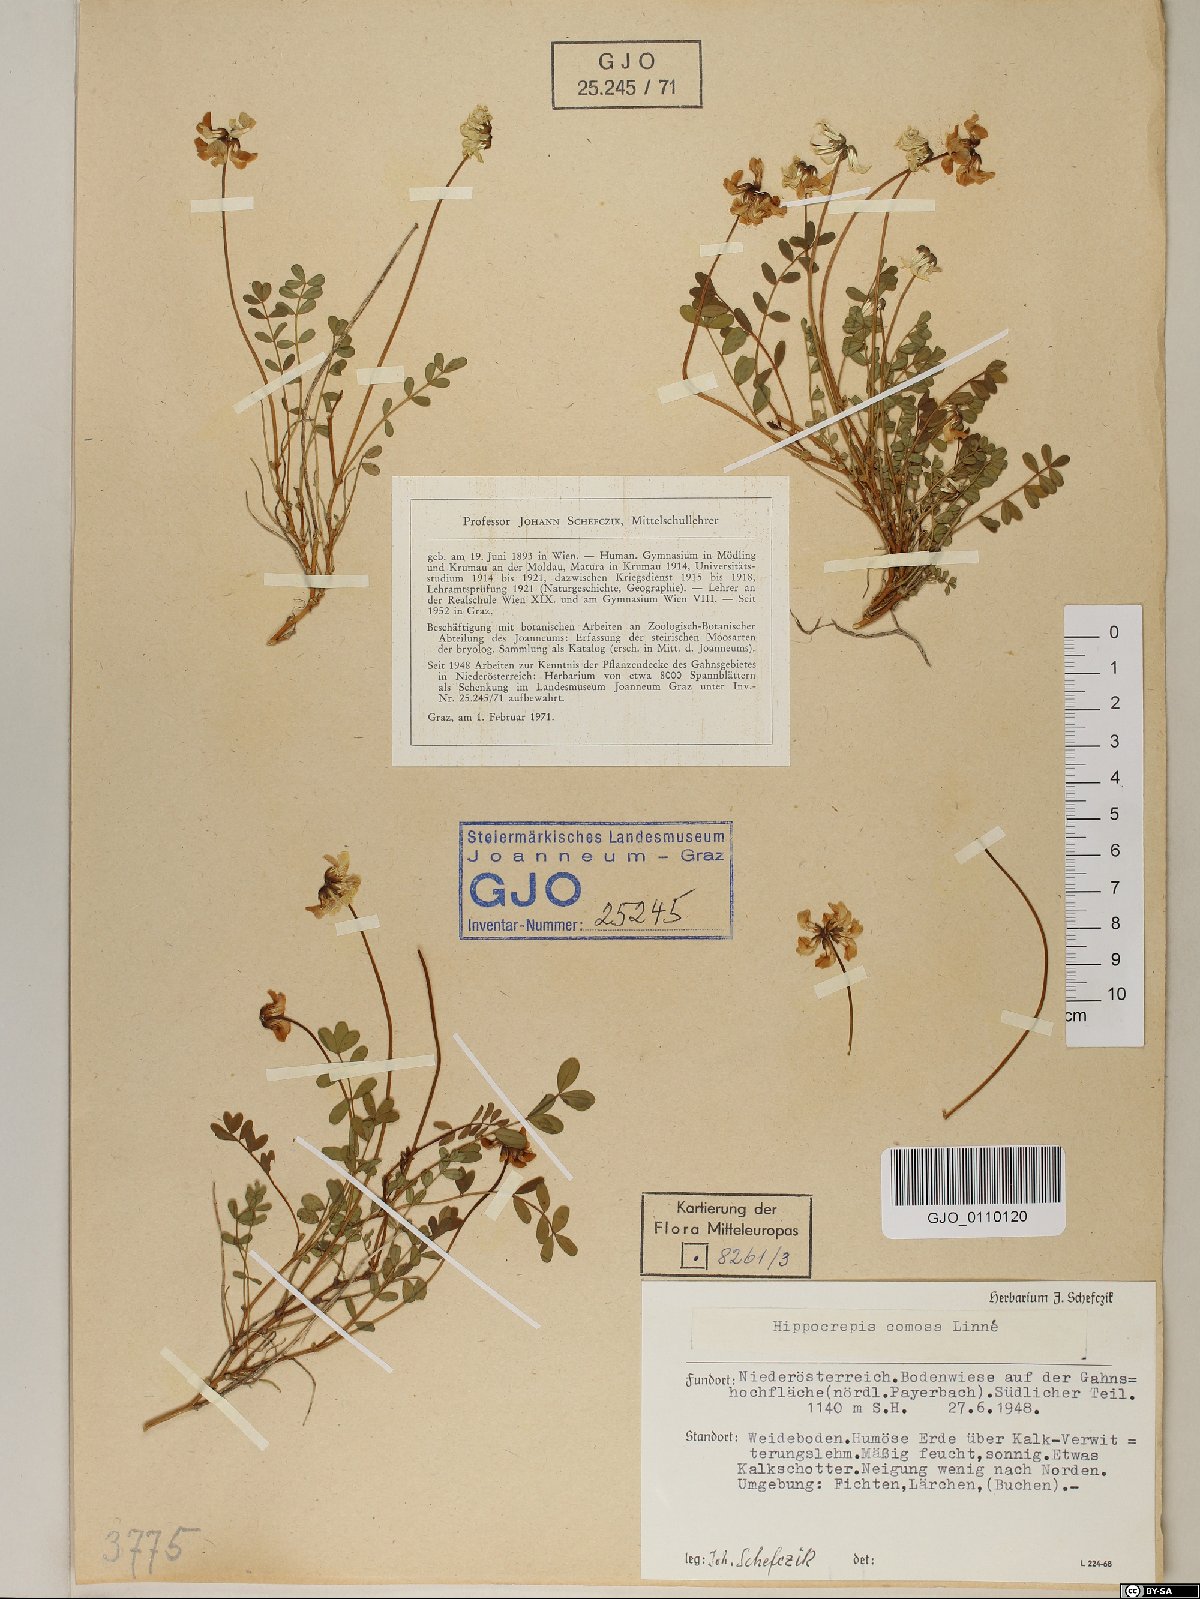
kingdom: Plantae
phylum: Tracheophyta
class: Magnoliopsida
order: Fabales
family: Fabaceae
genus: Hippocrepis
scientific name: Hippocrepis comosa
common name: Horseshoe vetch
